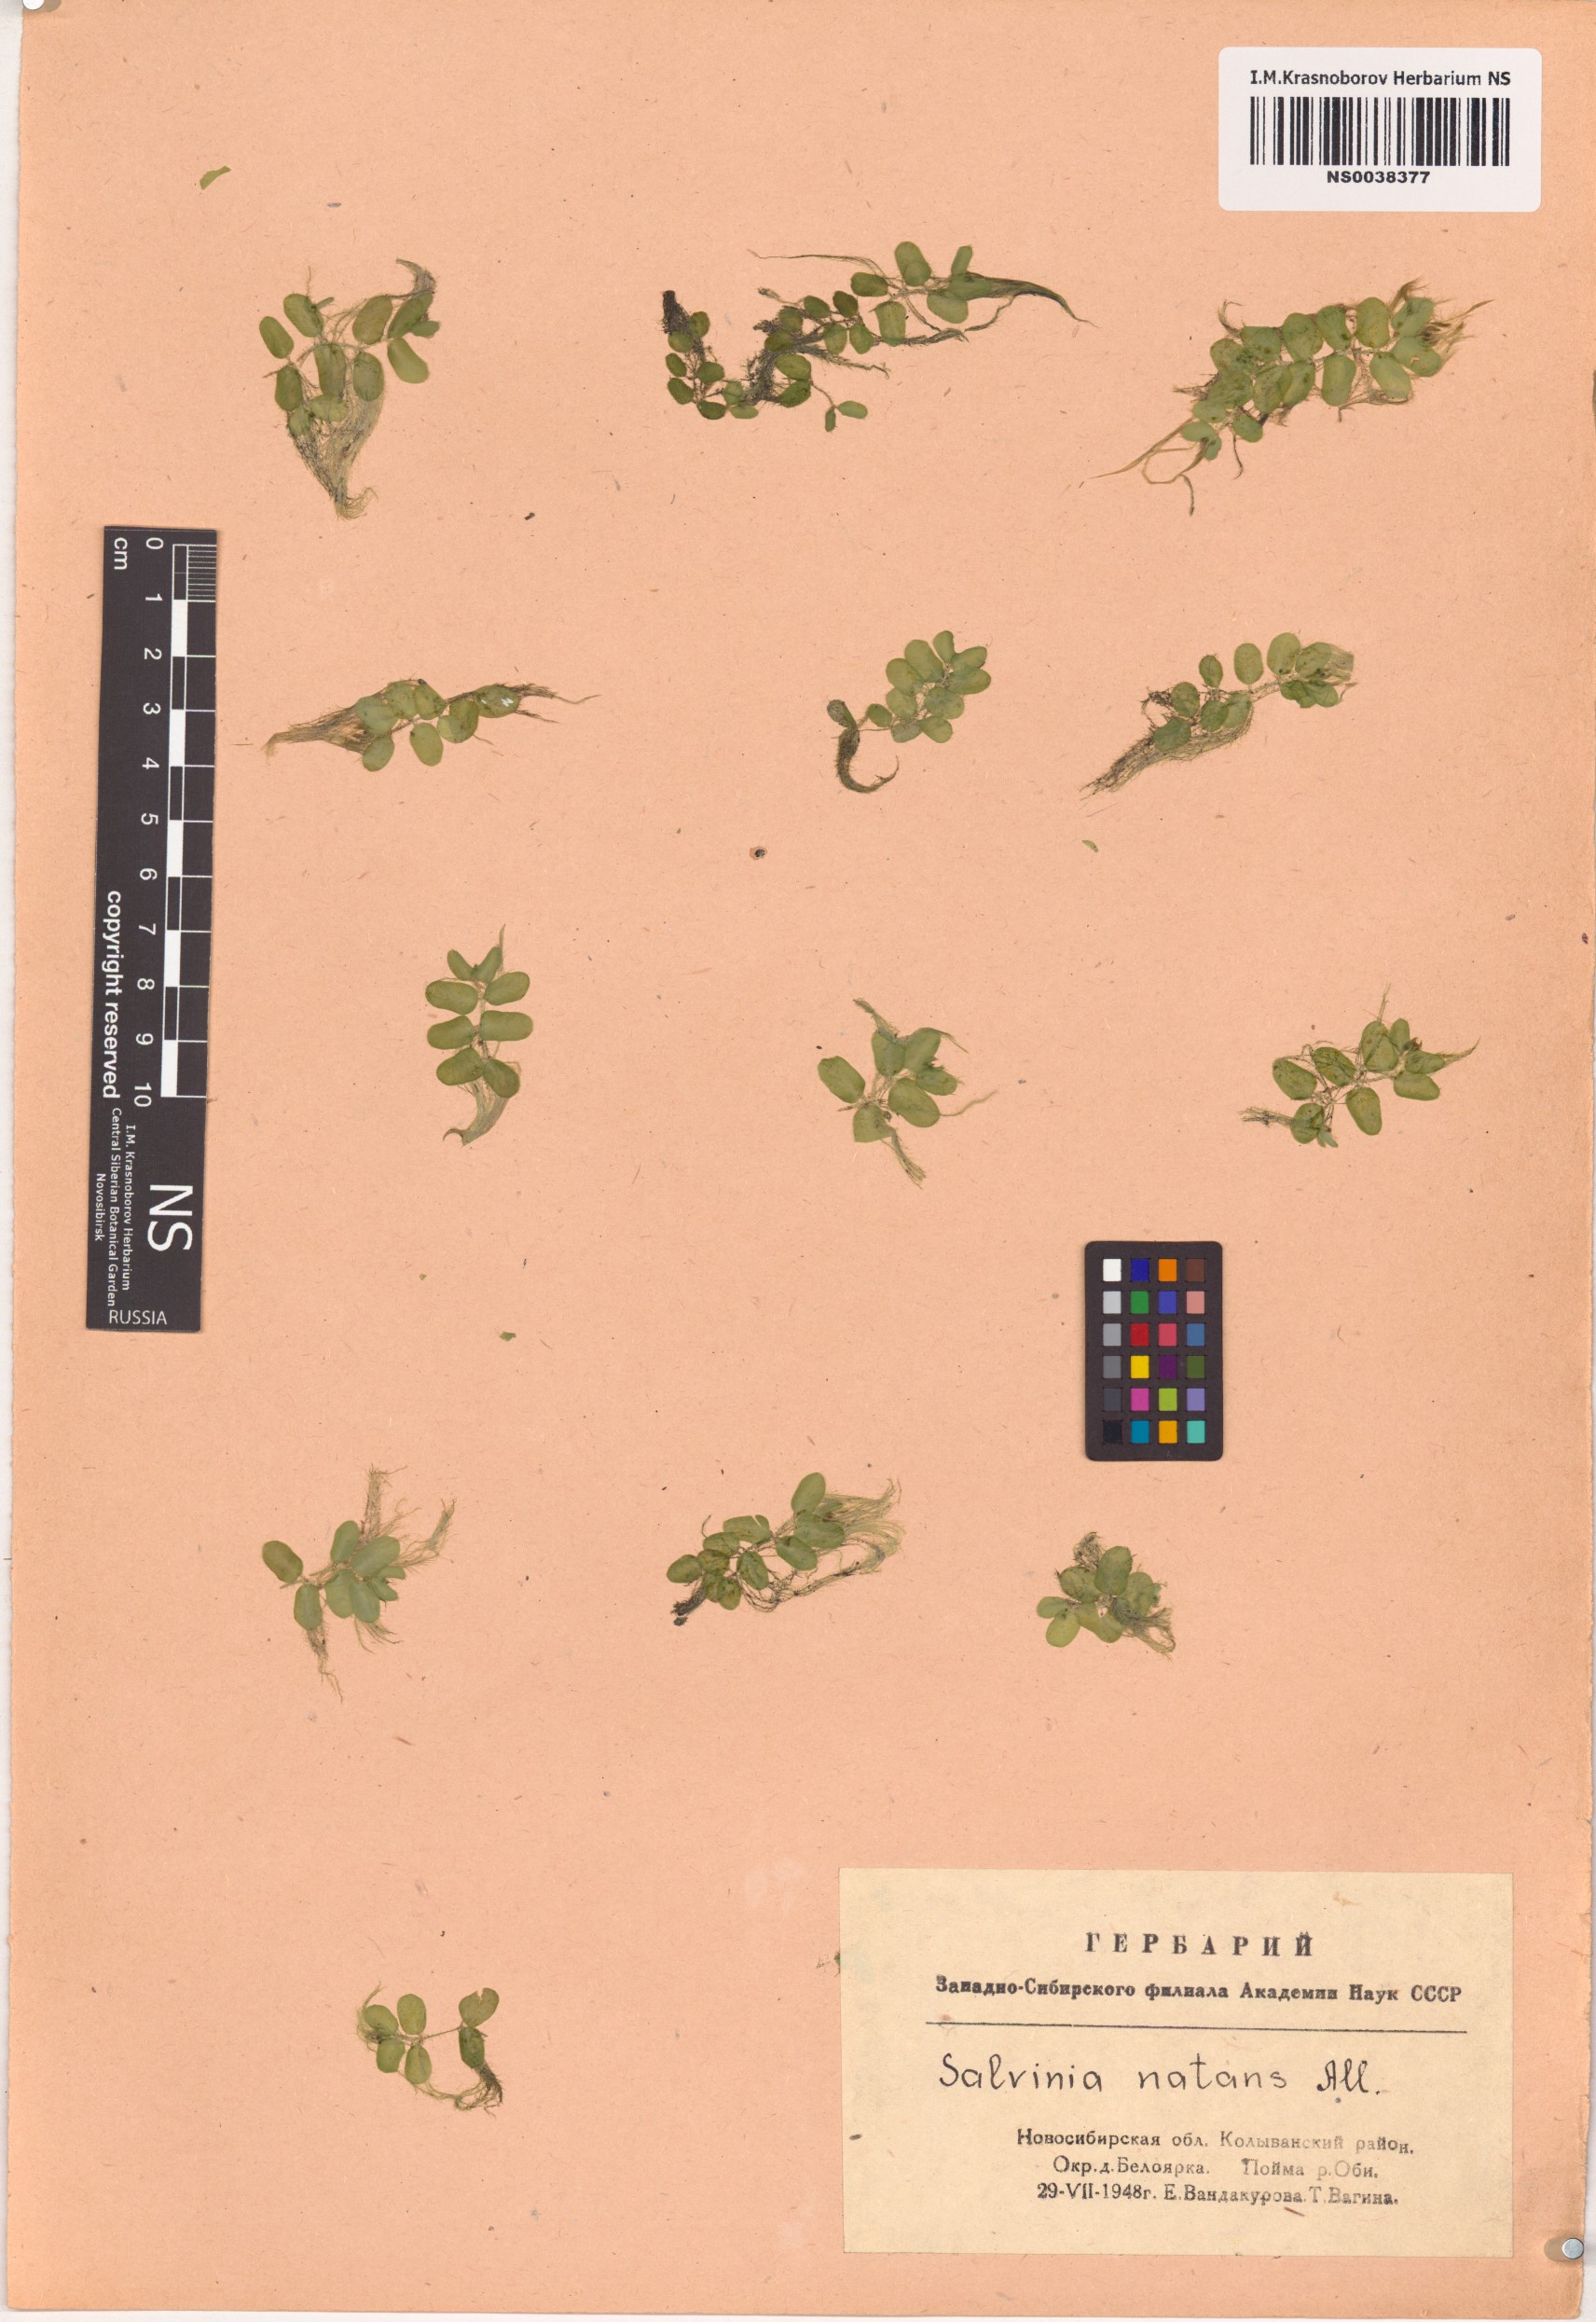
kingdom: Plantae
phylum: Tracheophyta
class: Polypodiopsida
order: Salviniales
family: Salviniaceae
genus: Salvinia
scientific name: Salvinia natans
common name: Floating fern
